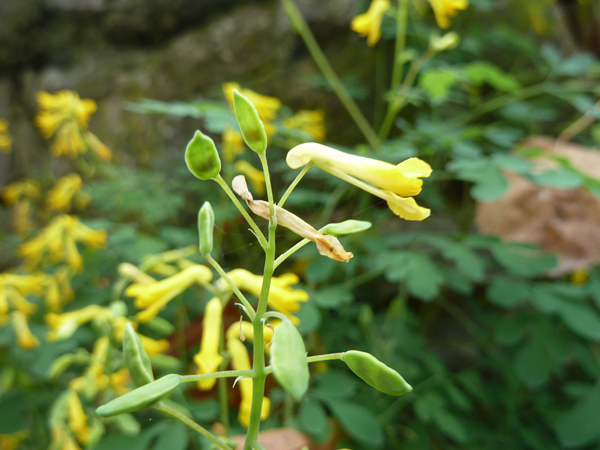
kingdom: Plantae
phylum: Tracheophyta
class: Magnoliopsida
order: Ranunculales
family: Papaveraceae
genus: Pseudofumaria
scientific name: Pseudofumaria lutea
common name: Yellow corydalis
